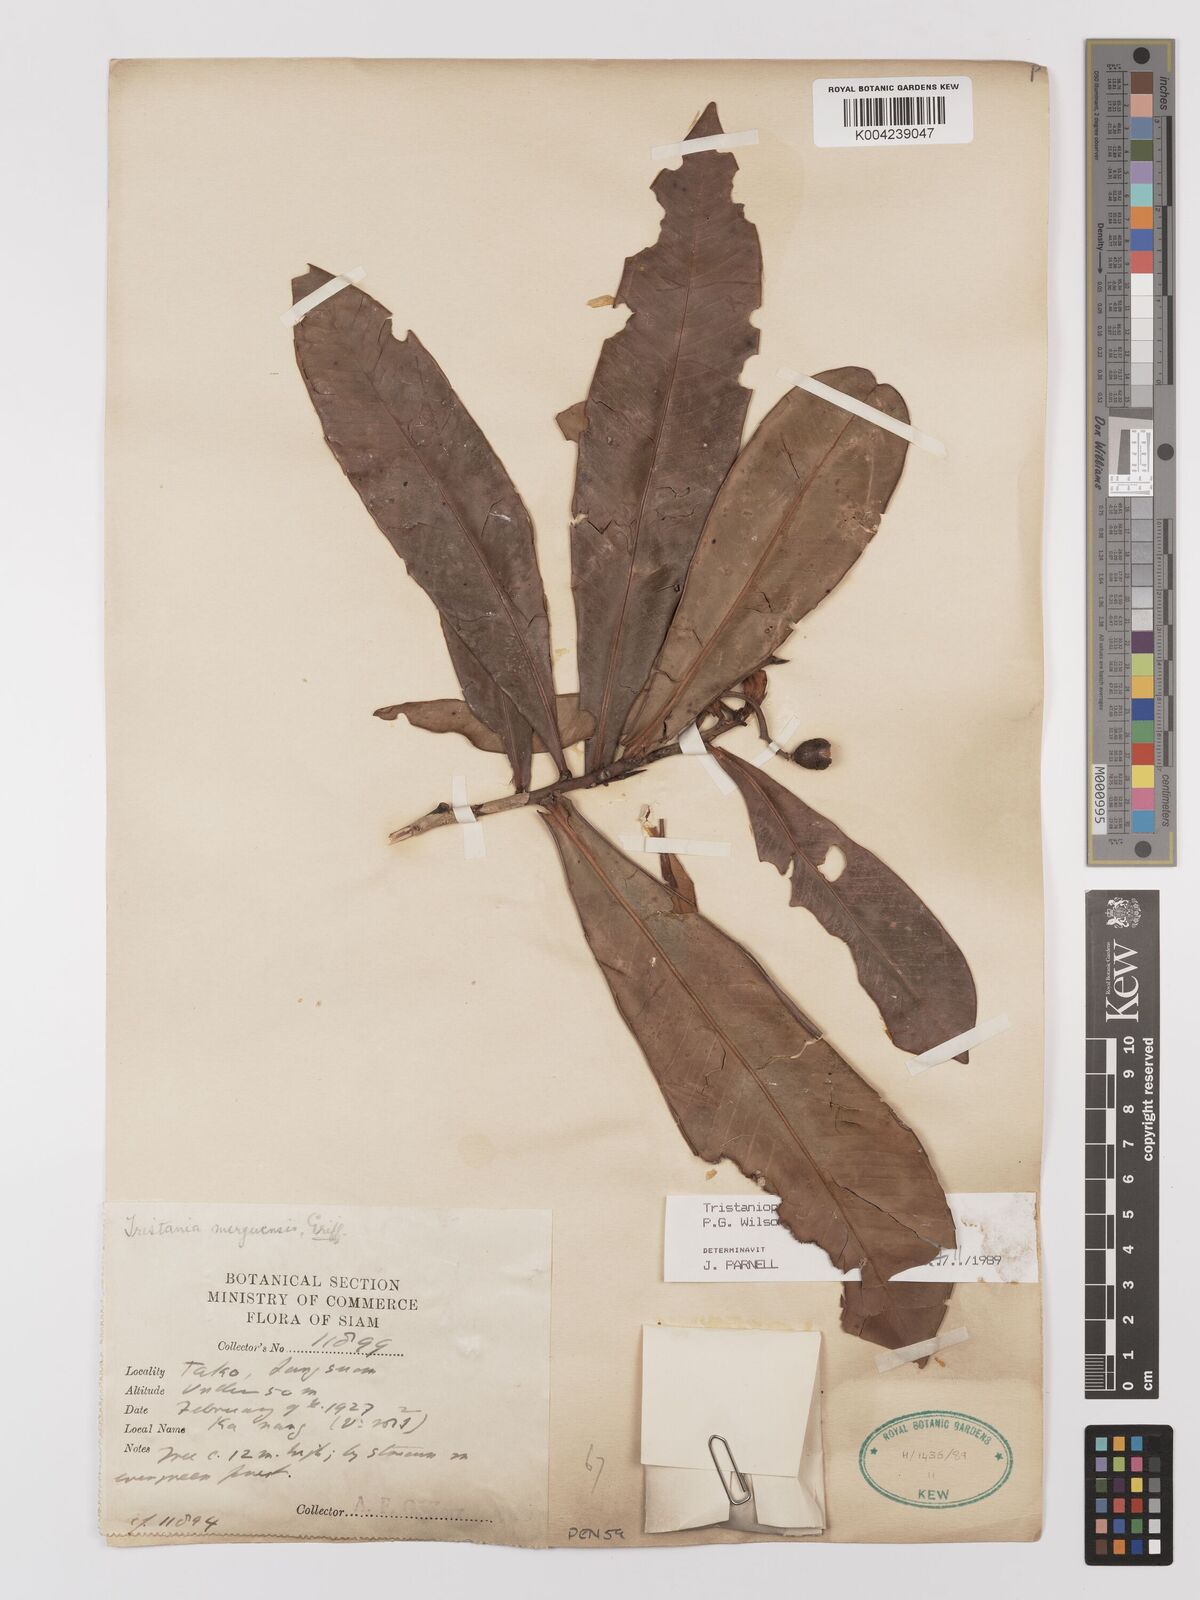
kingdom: Plantae
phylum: Tracheophyta
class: Magnoliopsida
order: Myrtales
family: Myrtaceae
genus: Tristaniopsis
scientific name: Tristaniopsis merguensis
